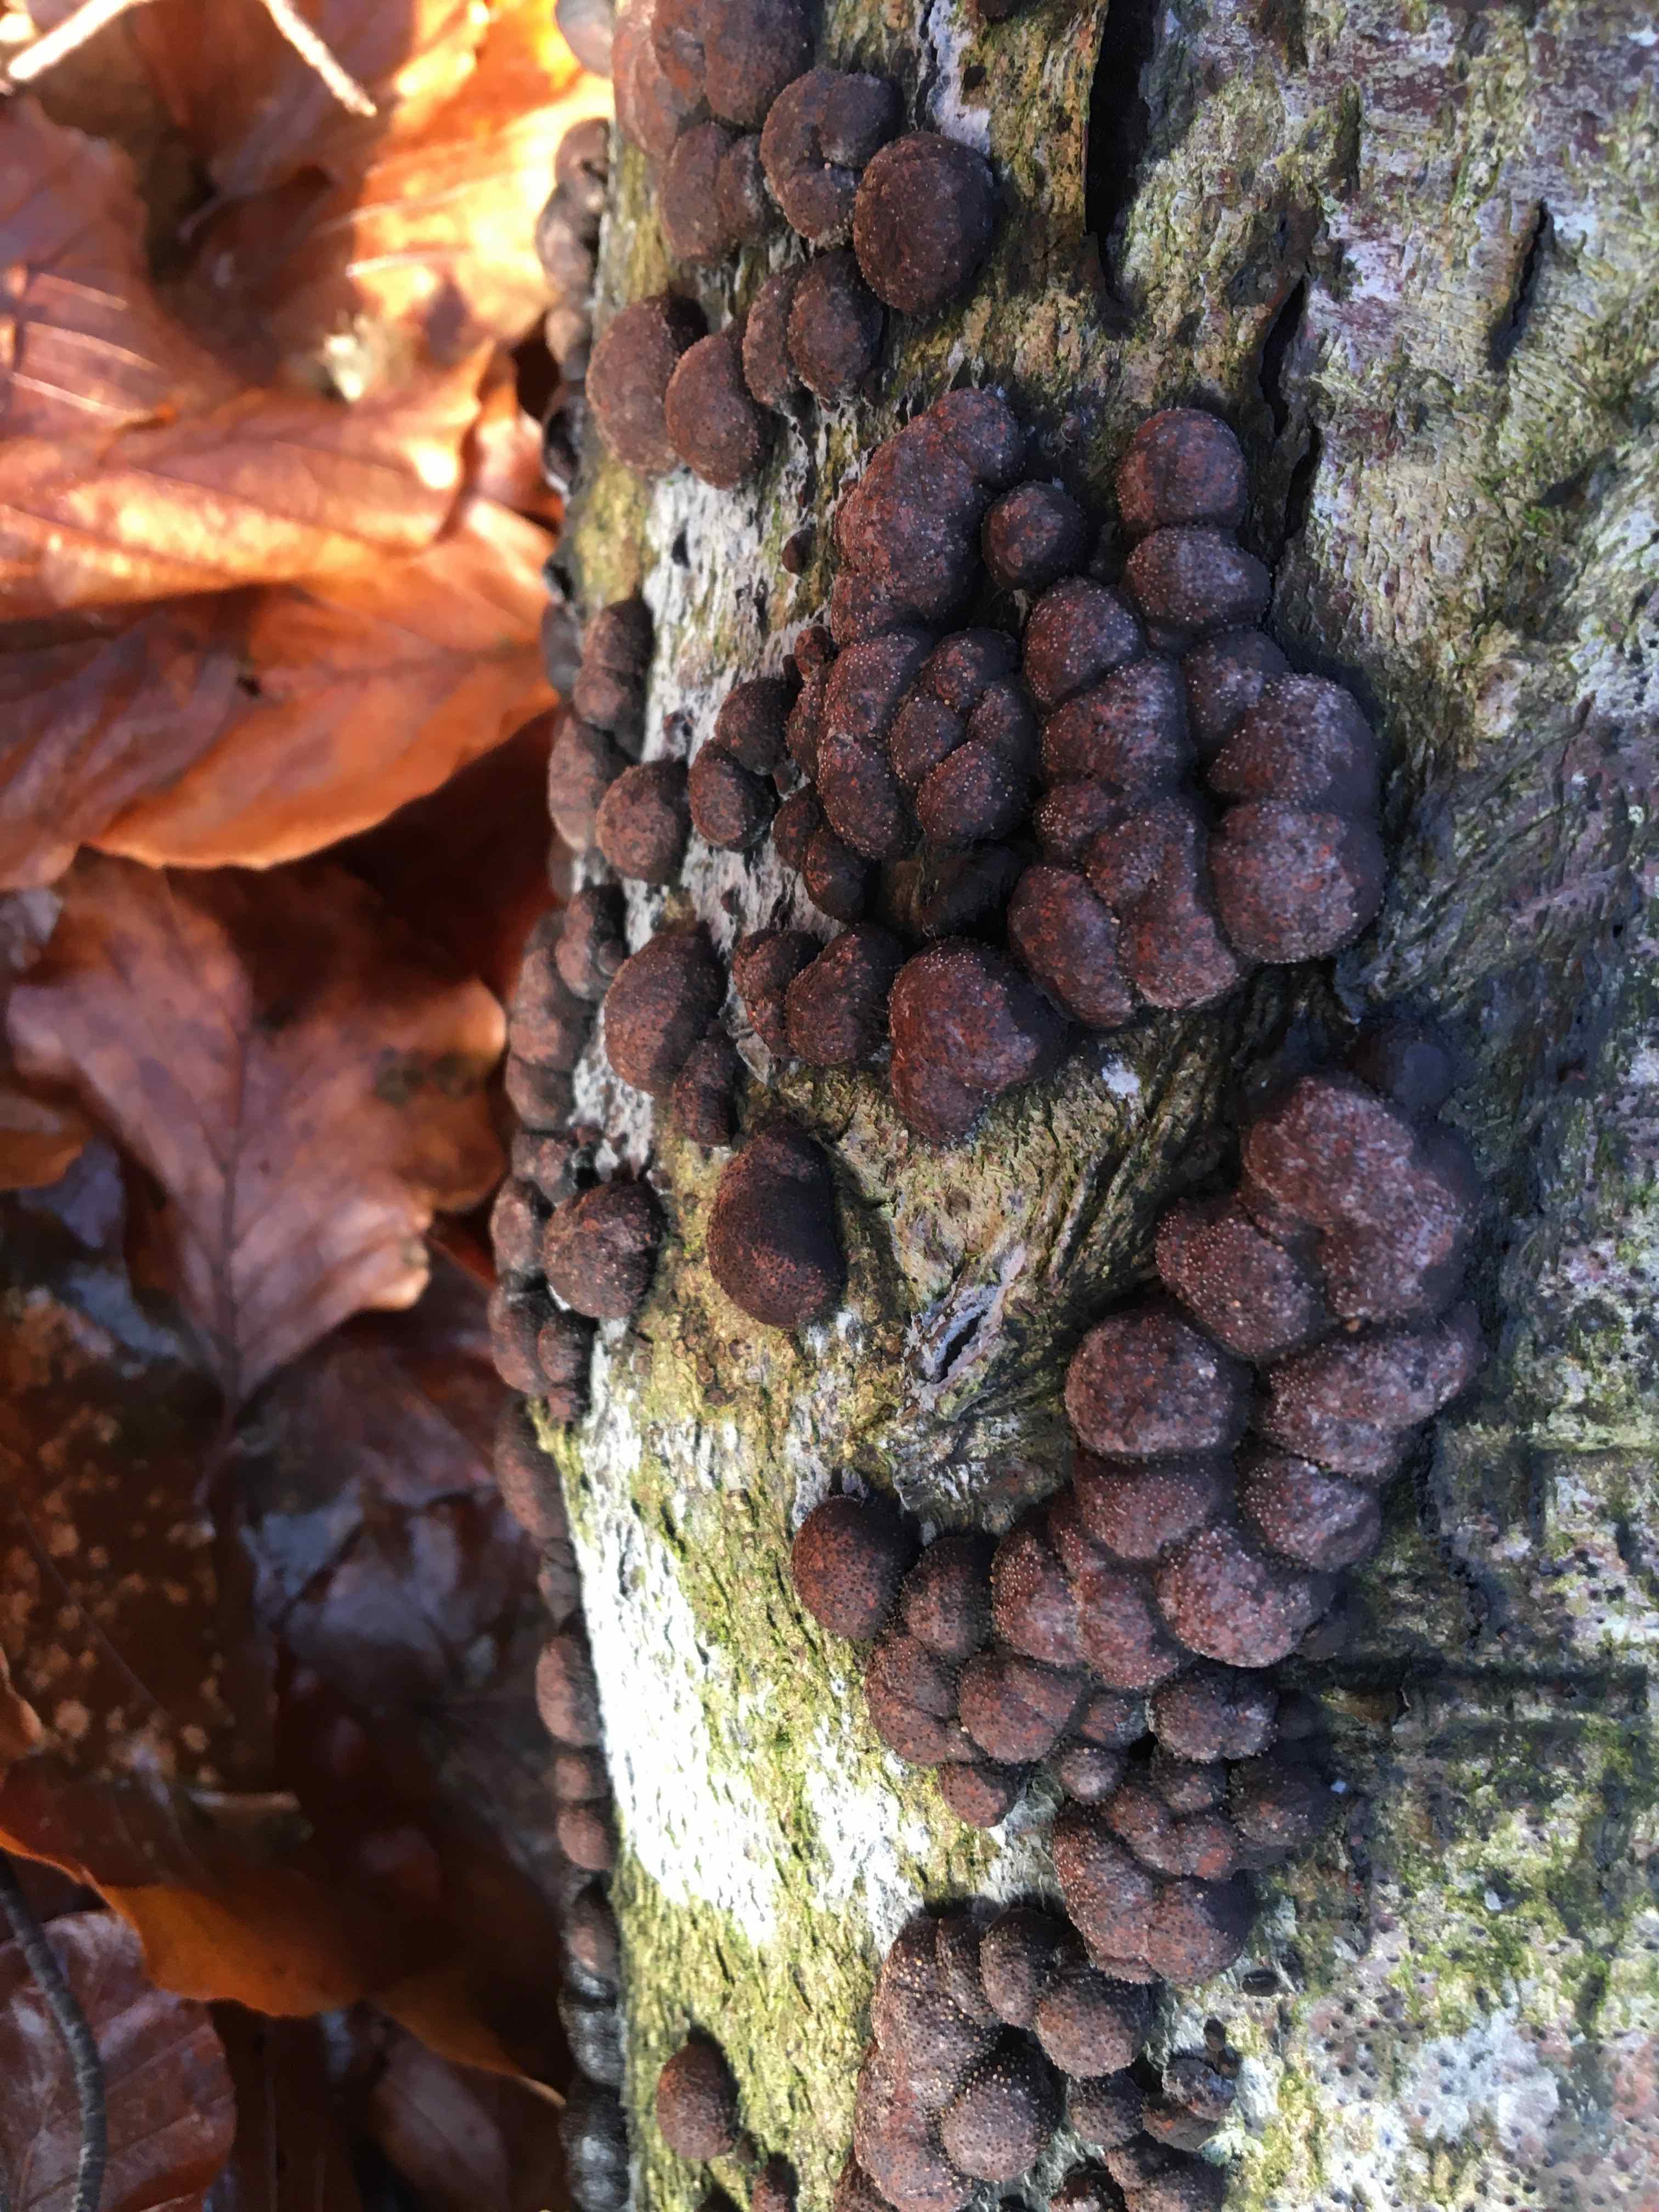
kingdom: Fungi
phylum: Ascomycota
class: Sordariomycetes
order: Xylariales
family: Hypoxylaceae
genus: Hypoxylon
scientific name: Hypoxylon fragiforme
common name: kuljordbær
